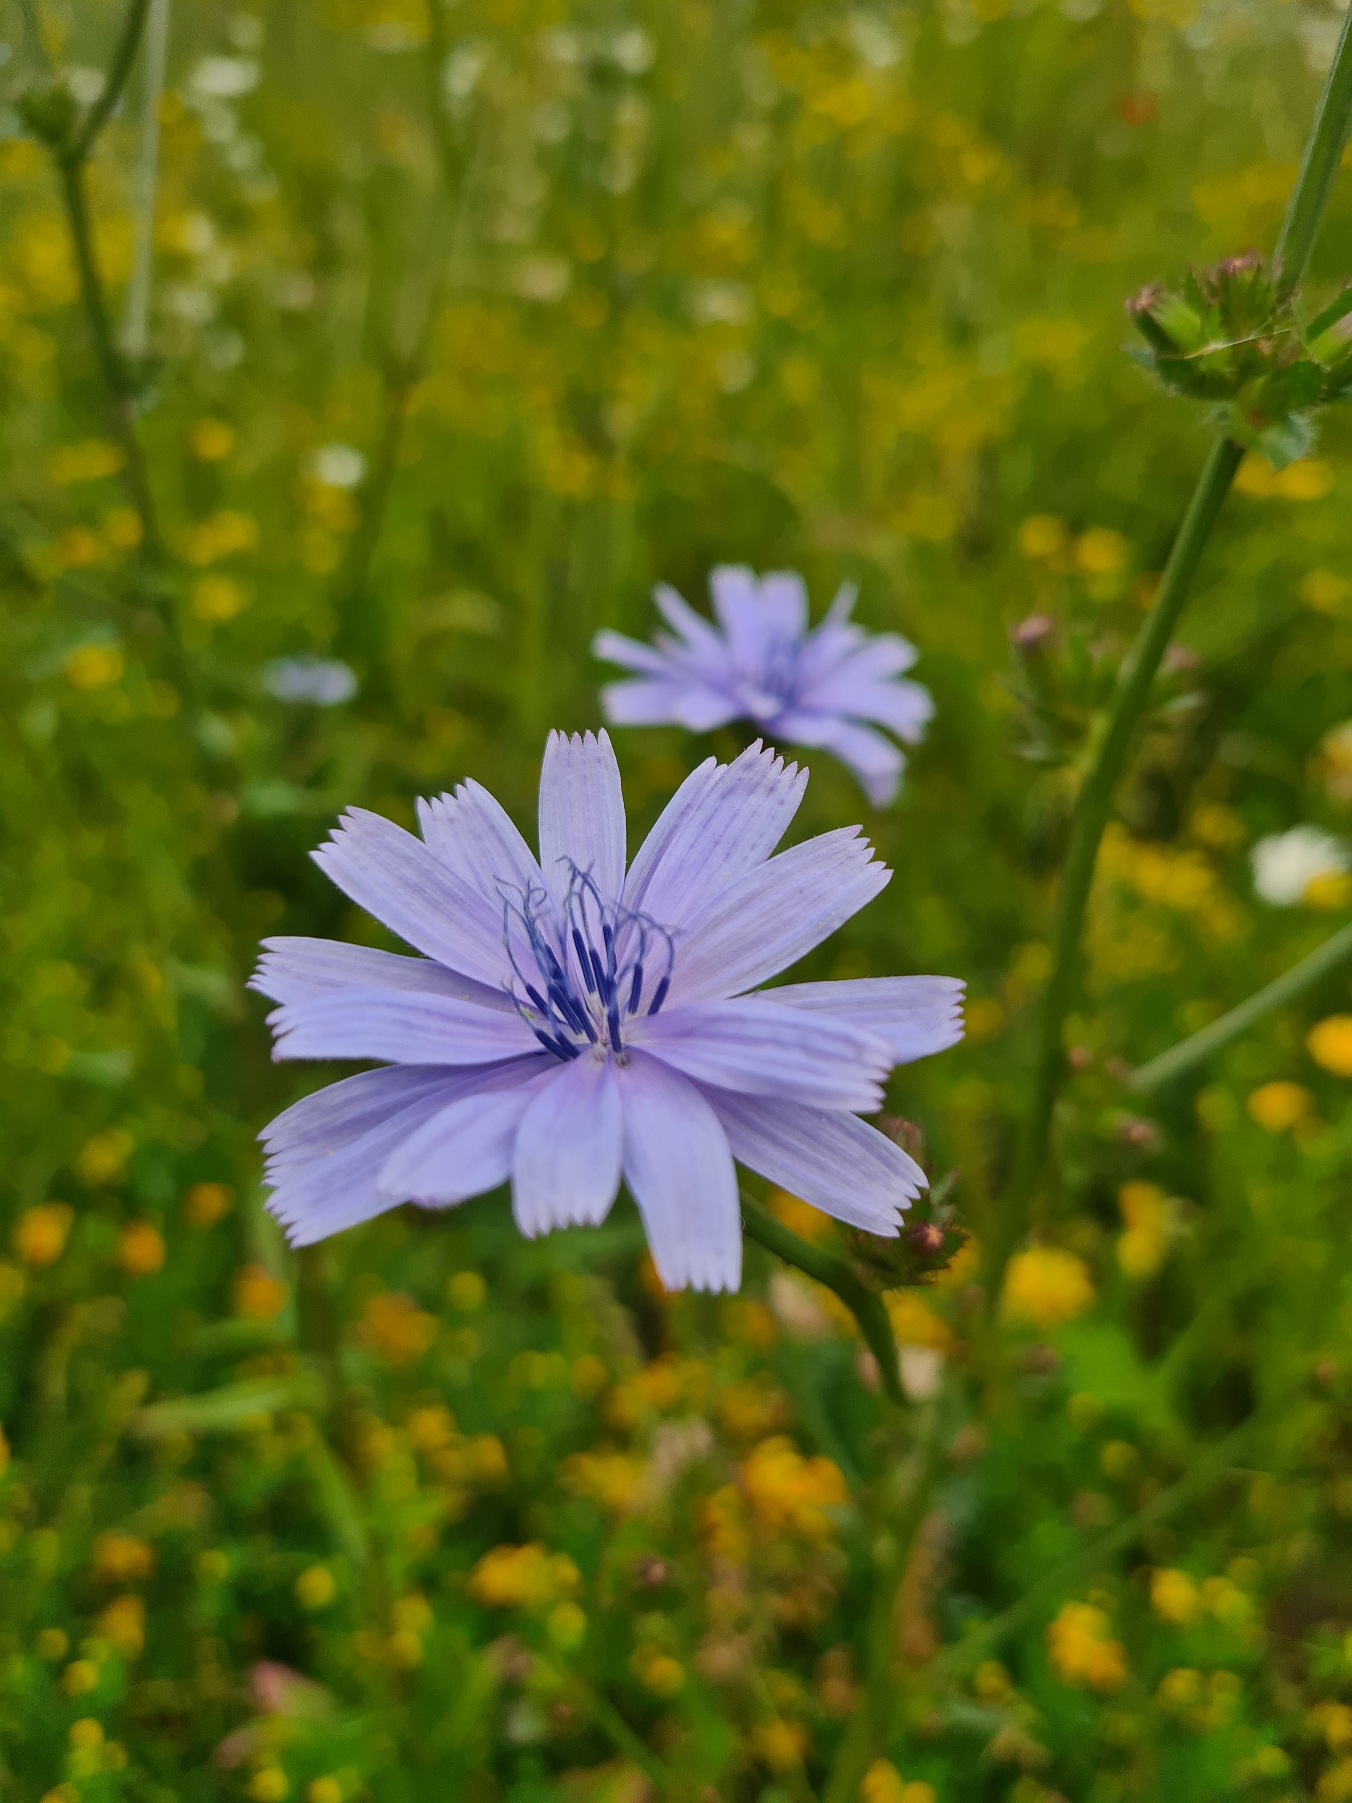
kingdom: Plantae
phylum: Tracheophyta
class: Magnoliopsida
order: Asterales
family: Asteraceae
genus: Cichorium
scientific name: Cichorium intybus
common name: Cikorie
